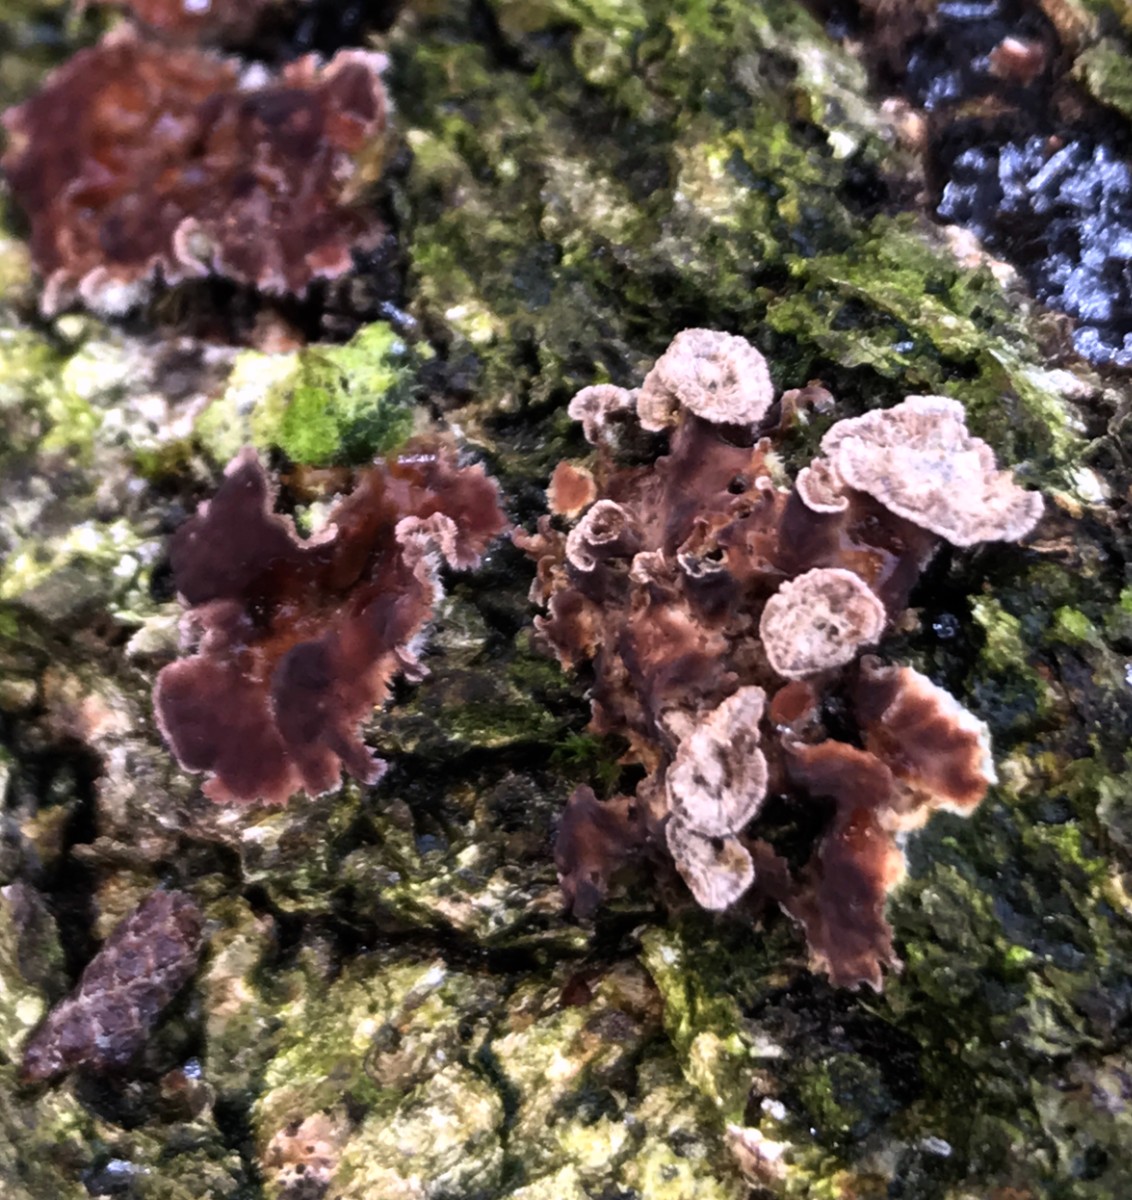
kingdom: Fungi
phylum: Basidiomycota
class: Agaricomycetes
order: Agaricales
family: Cyphellaceae
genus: Chondrostereum
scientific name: Chondrostereum purpureum
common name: purpurlædersvamp
